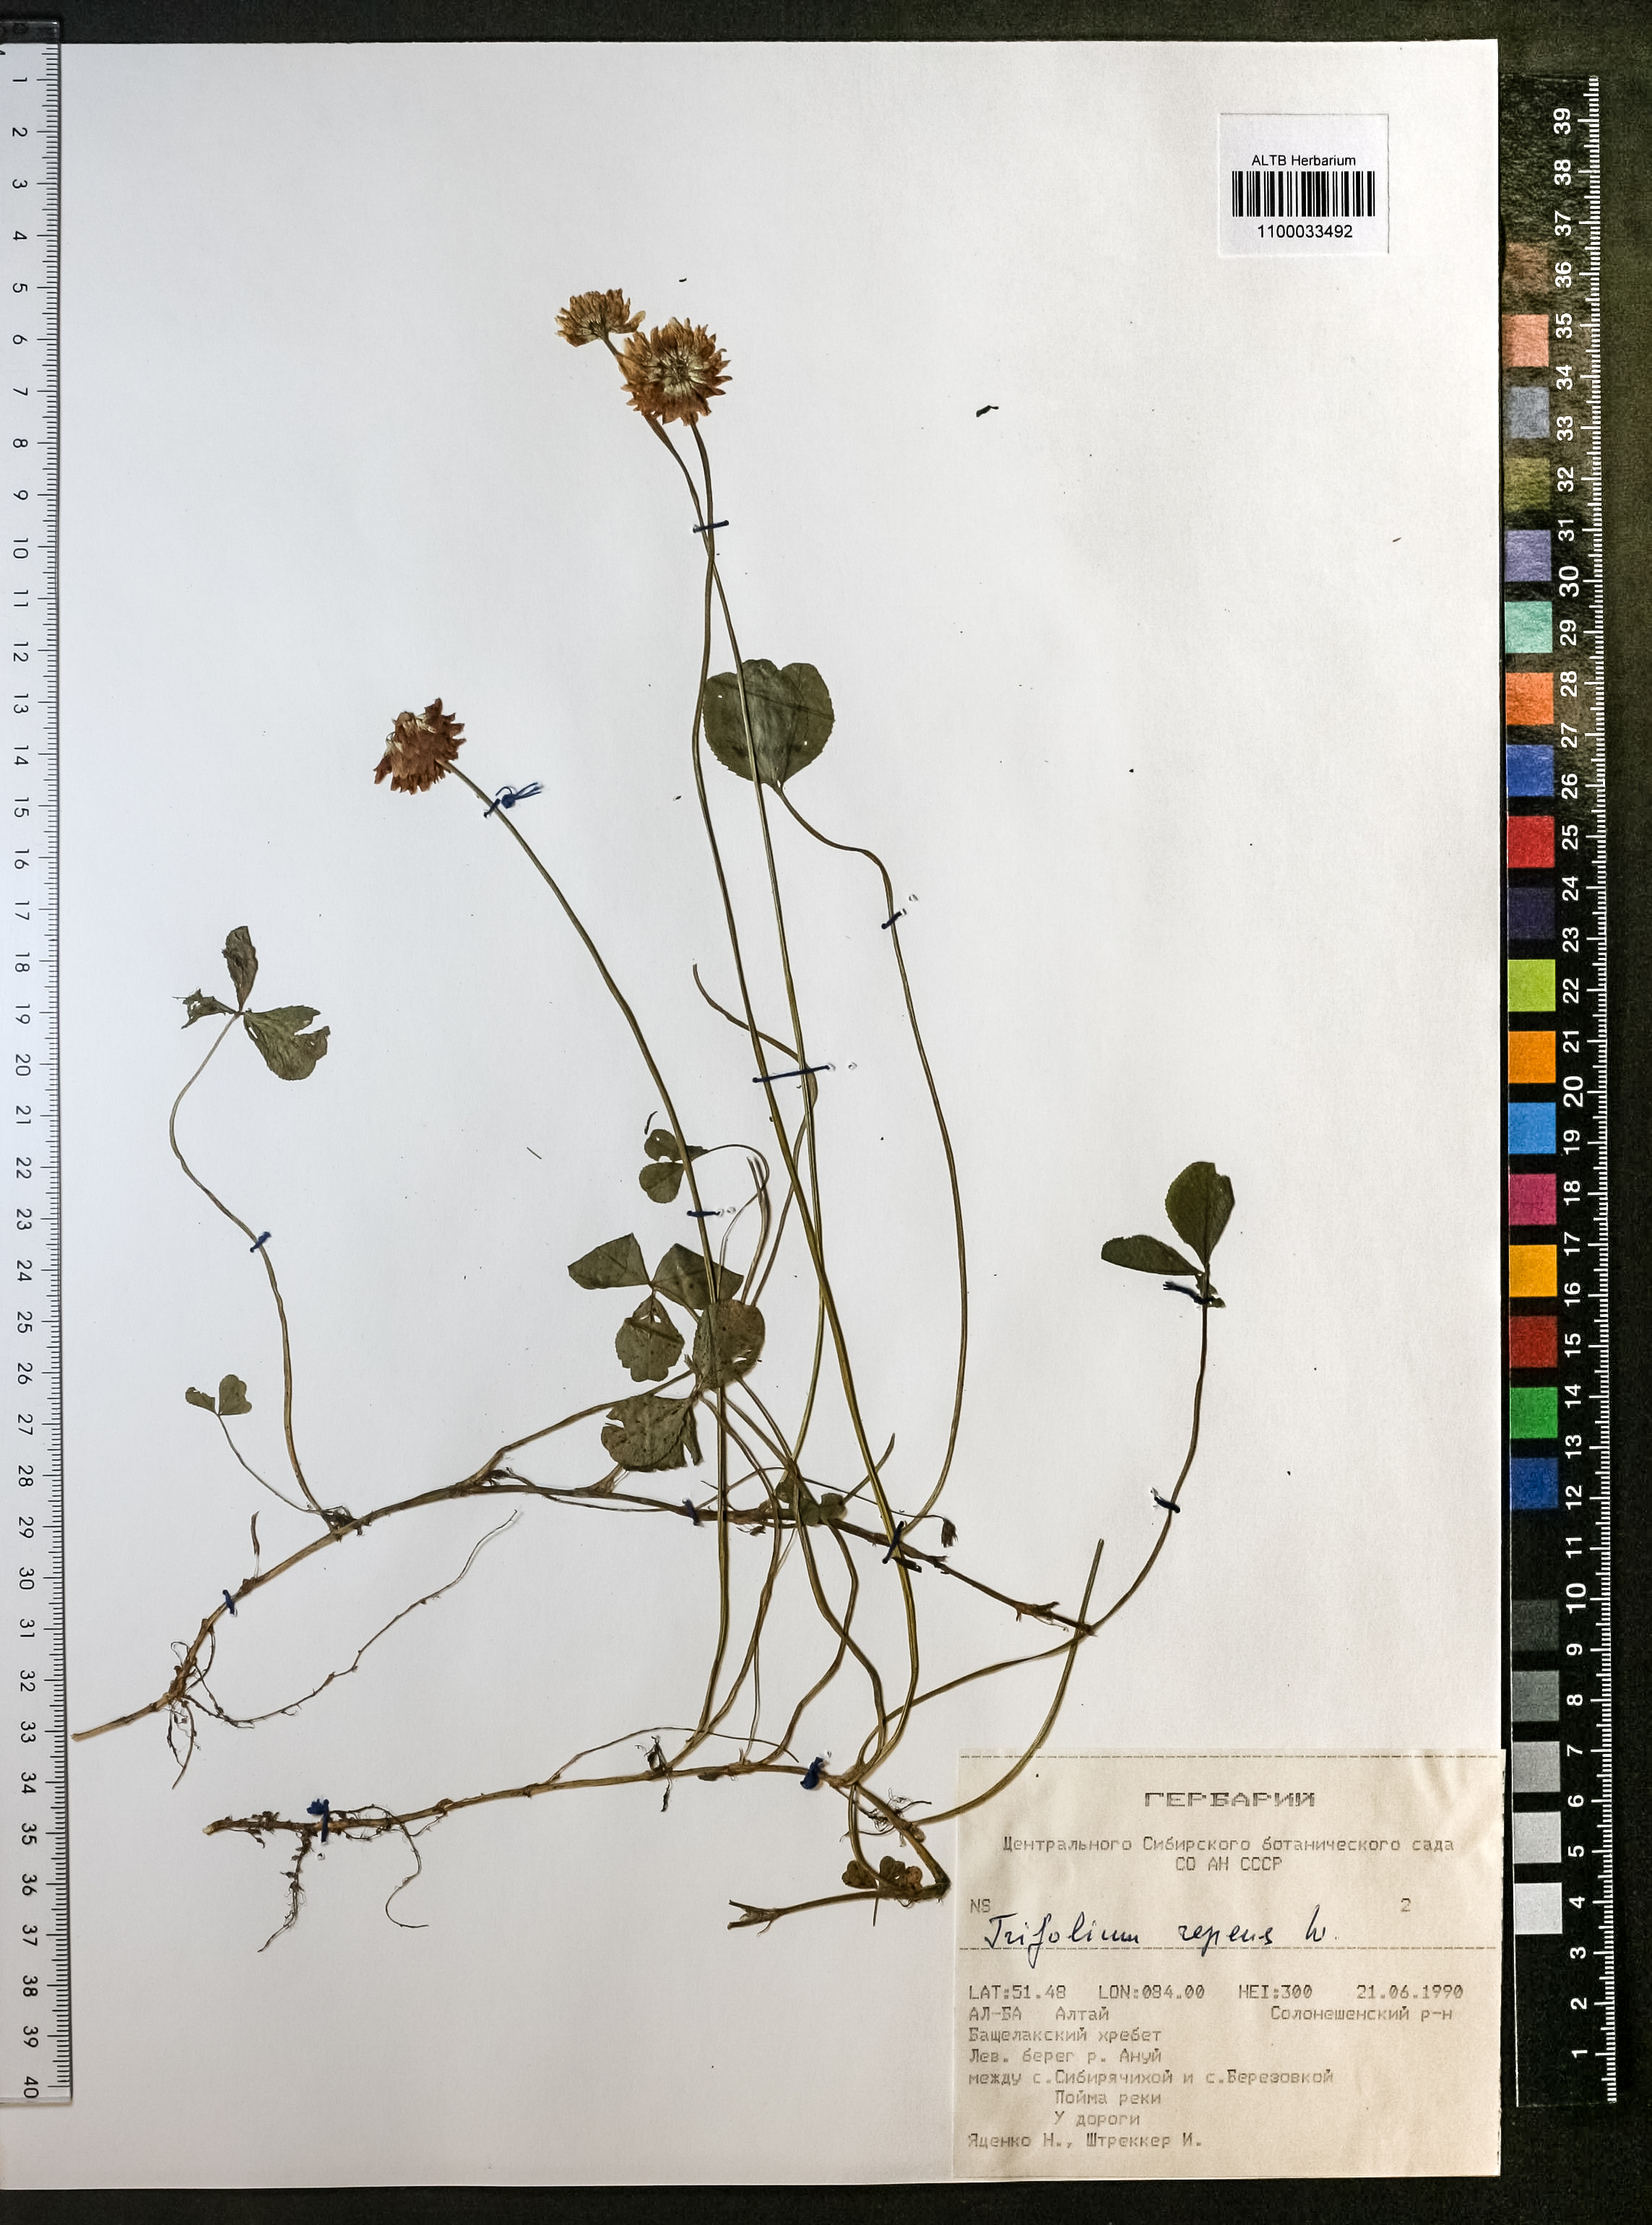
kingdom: Plantae
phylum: Tracheophyta
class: Magnoliopsida
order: Fabales
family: Fabaceae
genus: Trifolium
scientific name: Trifolium repens
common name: White clover
